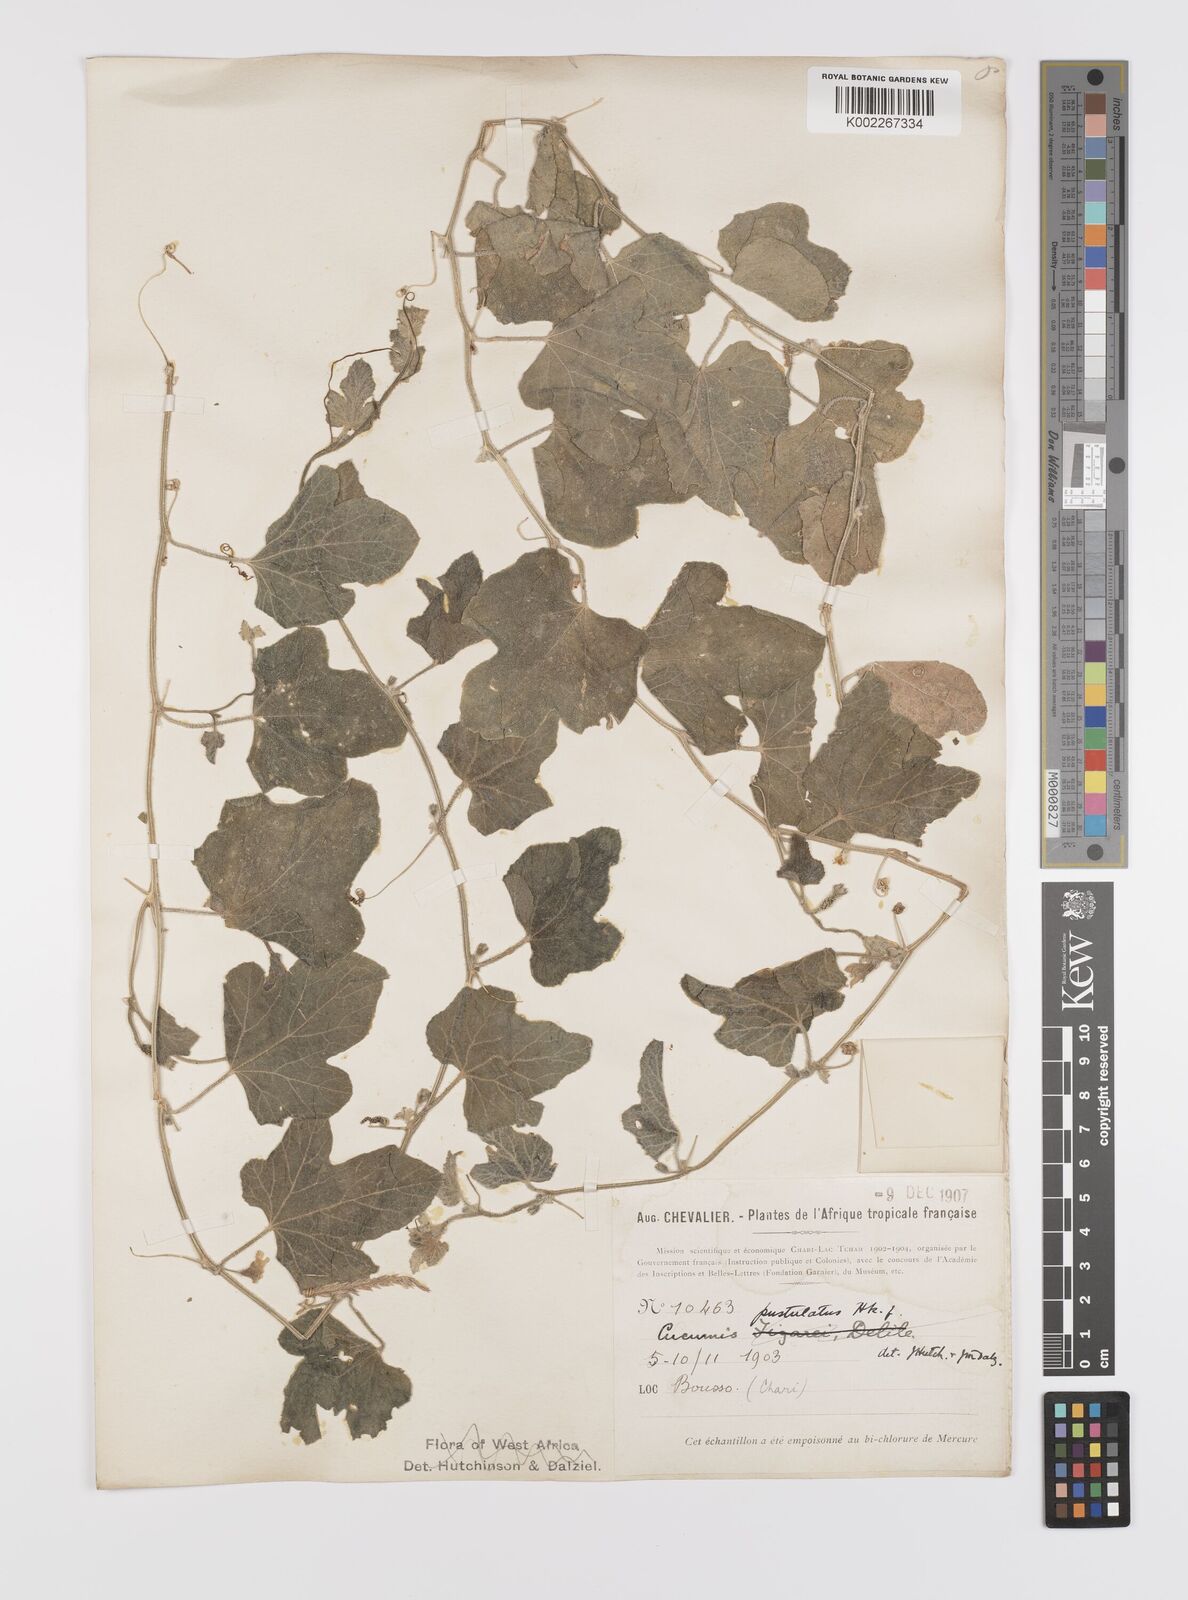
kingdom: Plantae
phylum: Tracheophyta
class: Magnoliopsida
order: Cucurbitales
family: Cucurbitaceae
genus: Cucumis
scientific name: Cucumis pustulatus
